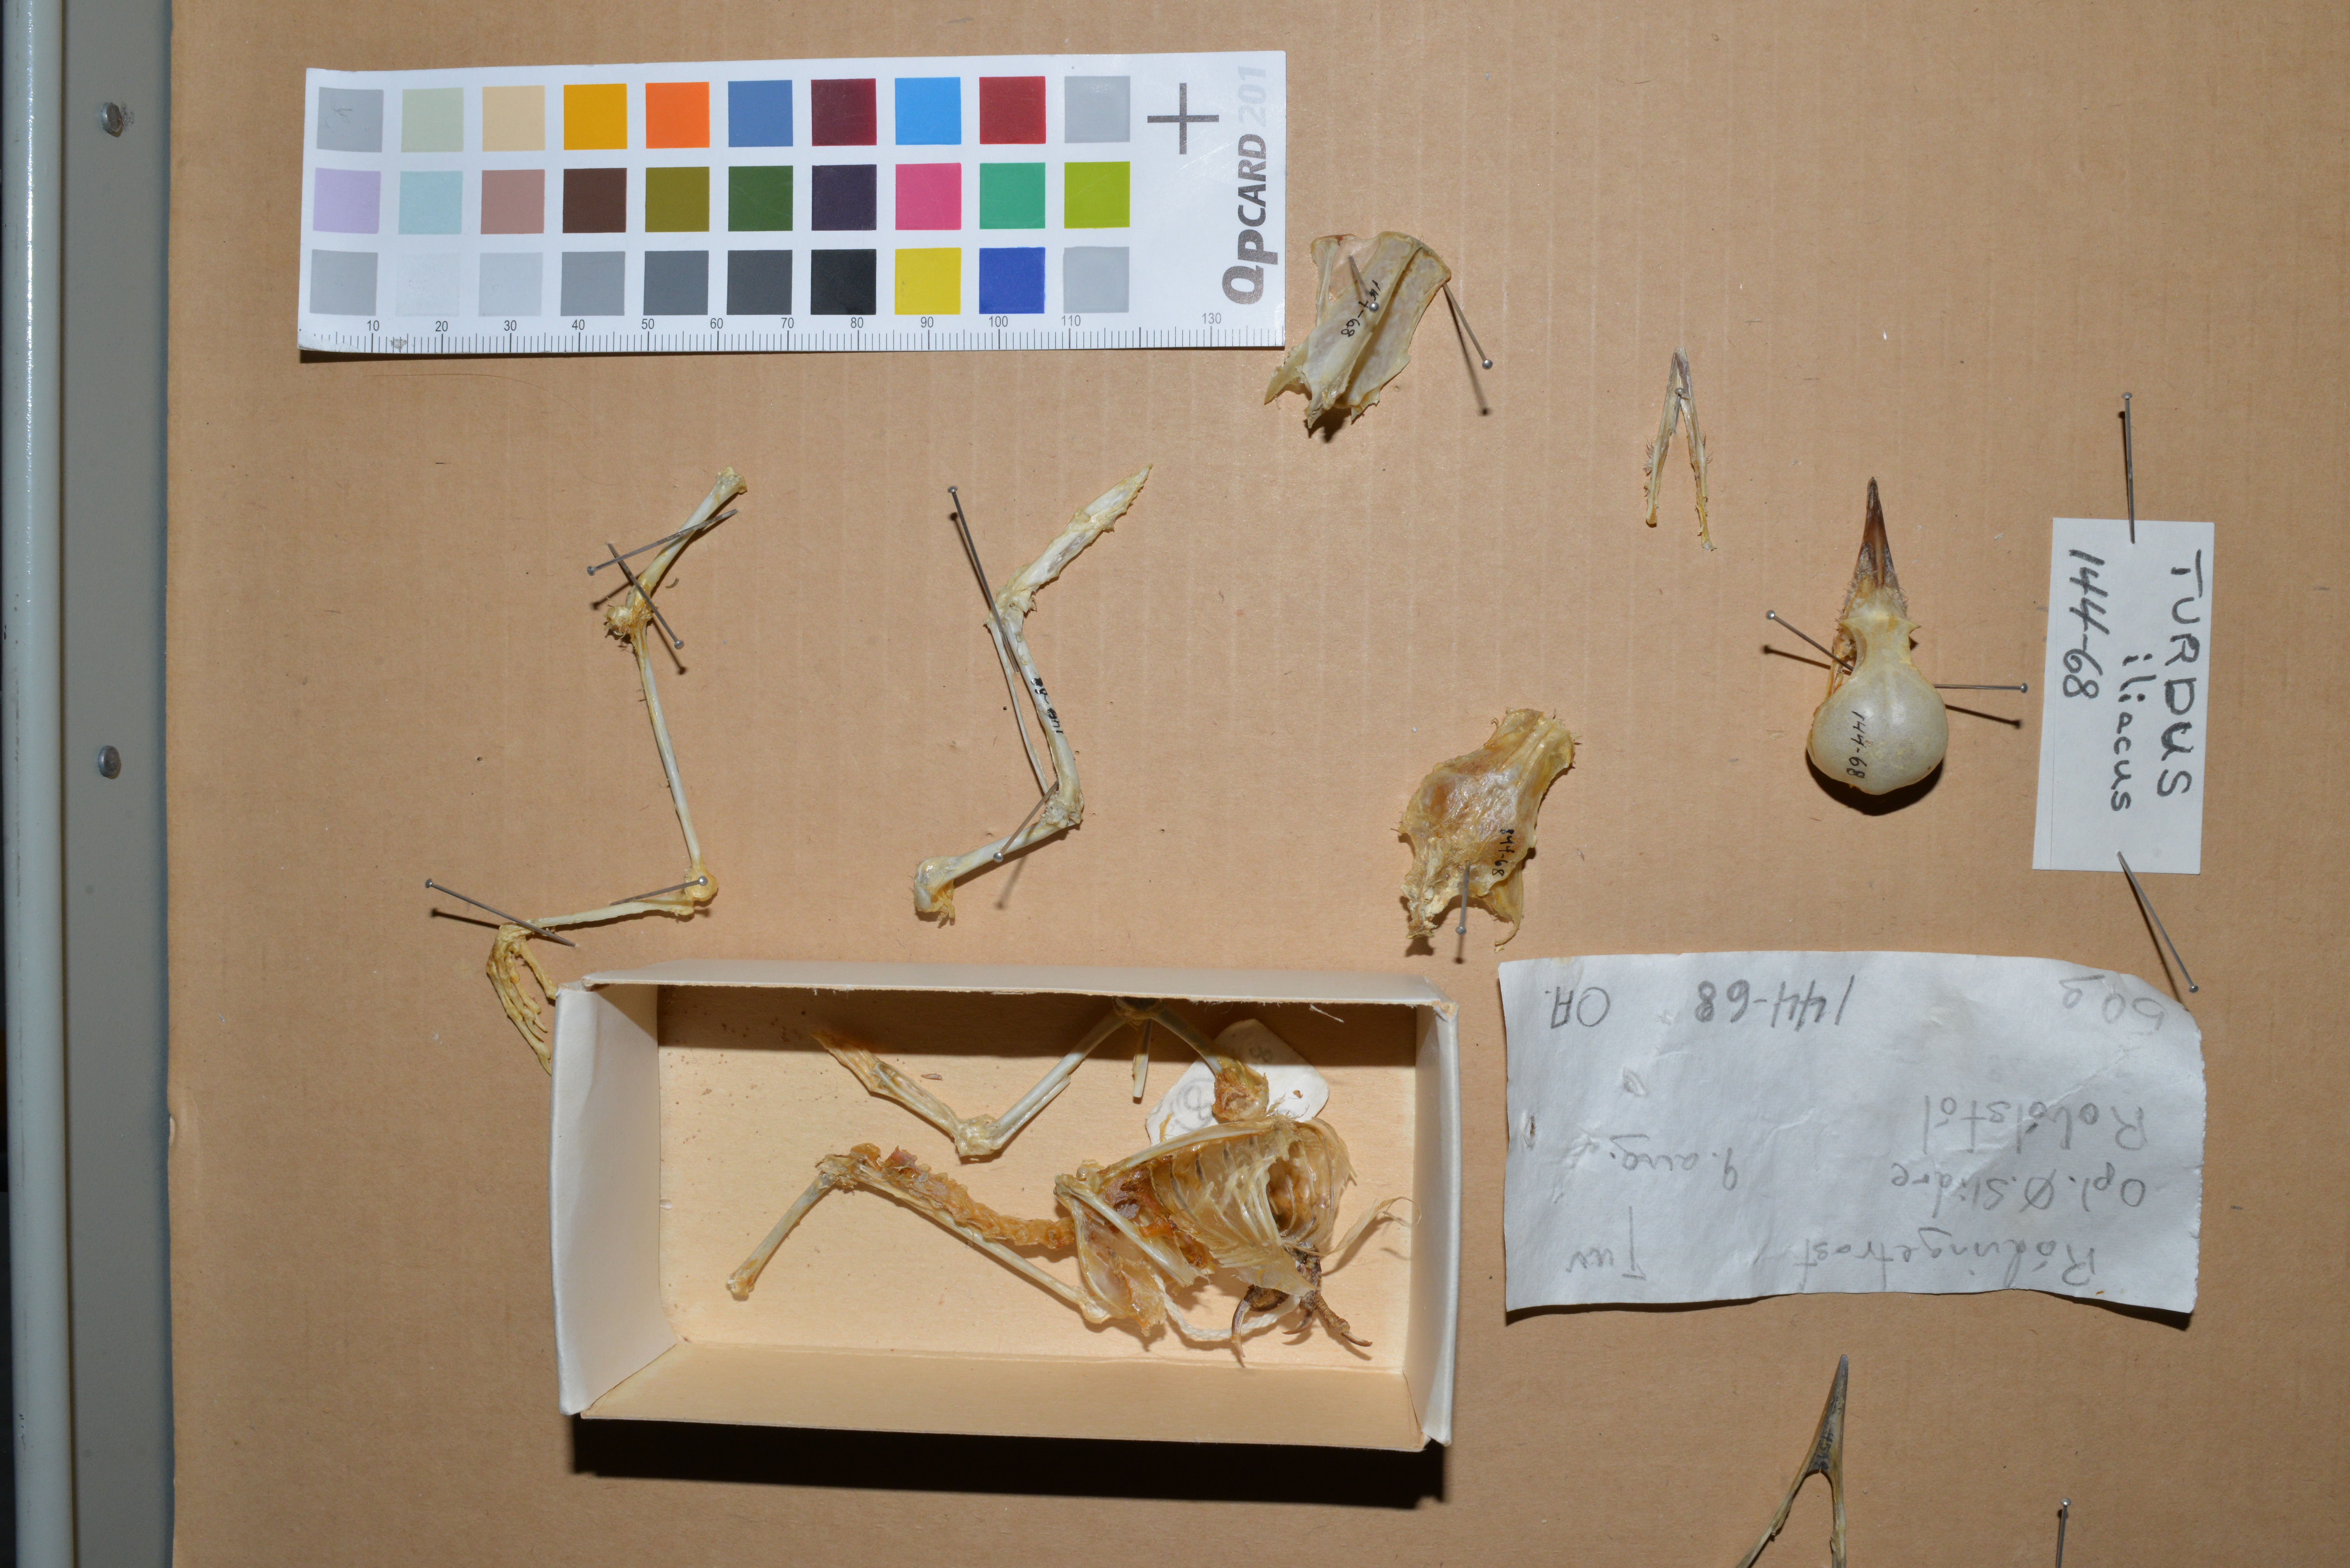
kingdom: Animalia
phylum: Chordata
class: Aves
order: Passeriformes
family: Turdidae
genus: Turdus
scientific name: Turdus iliacus
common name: Redwing
